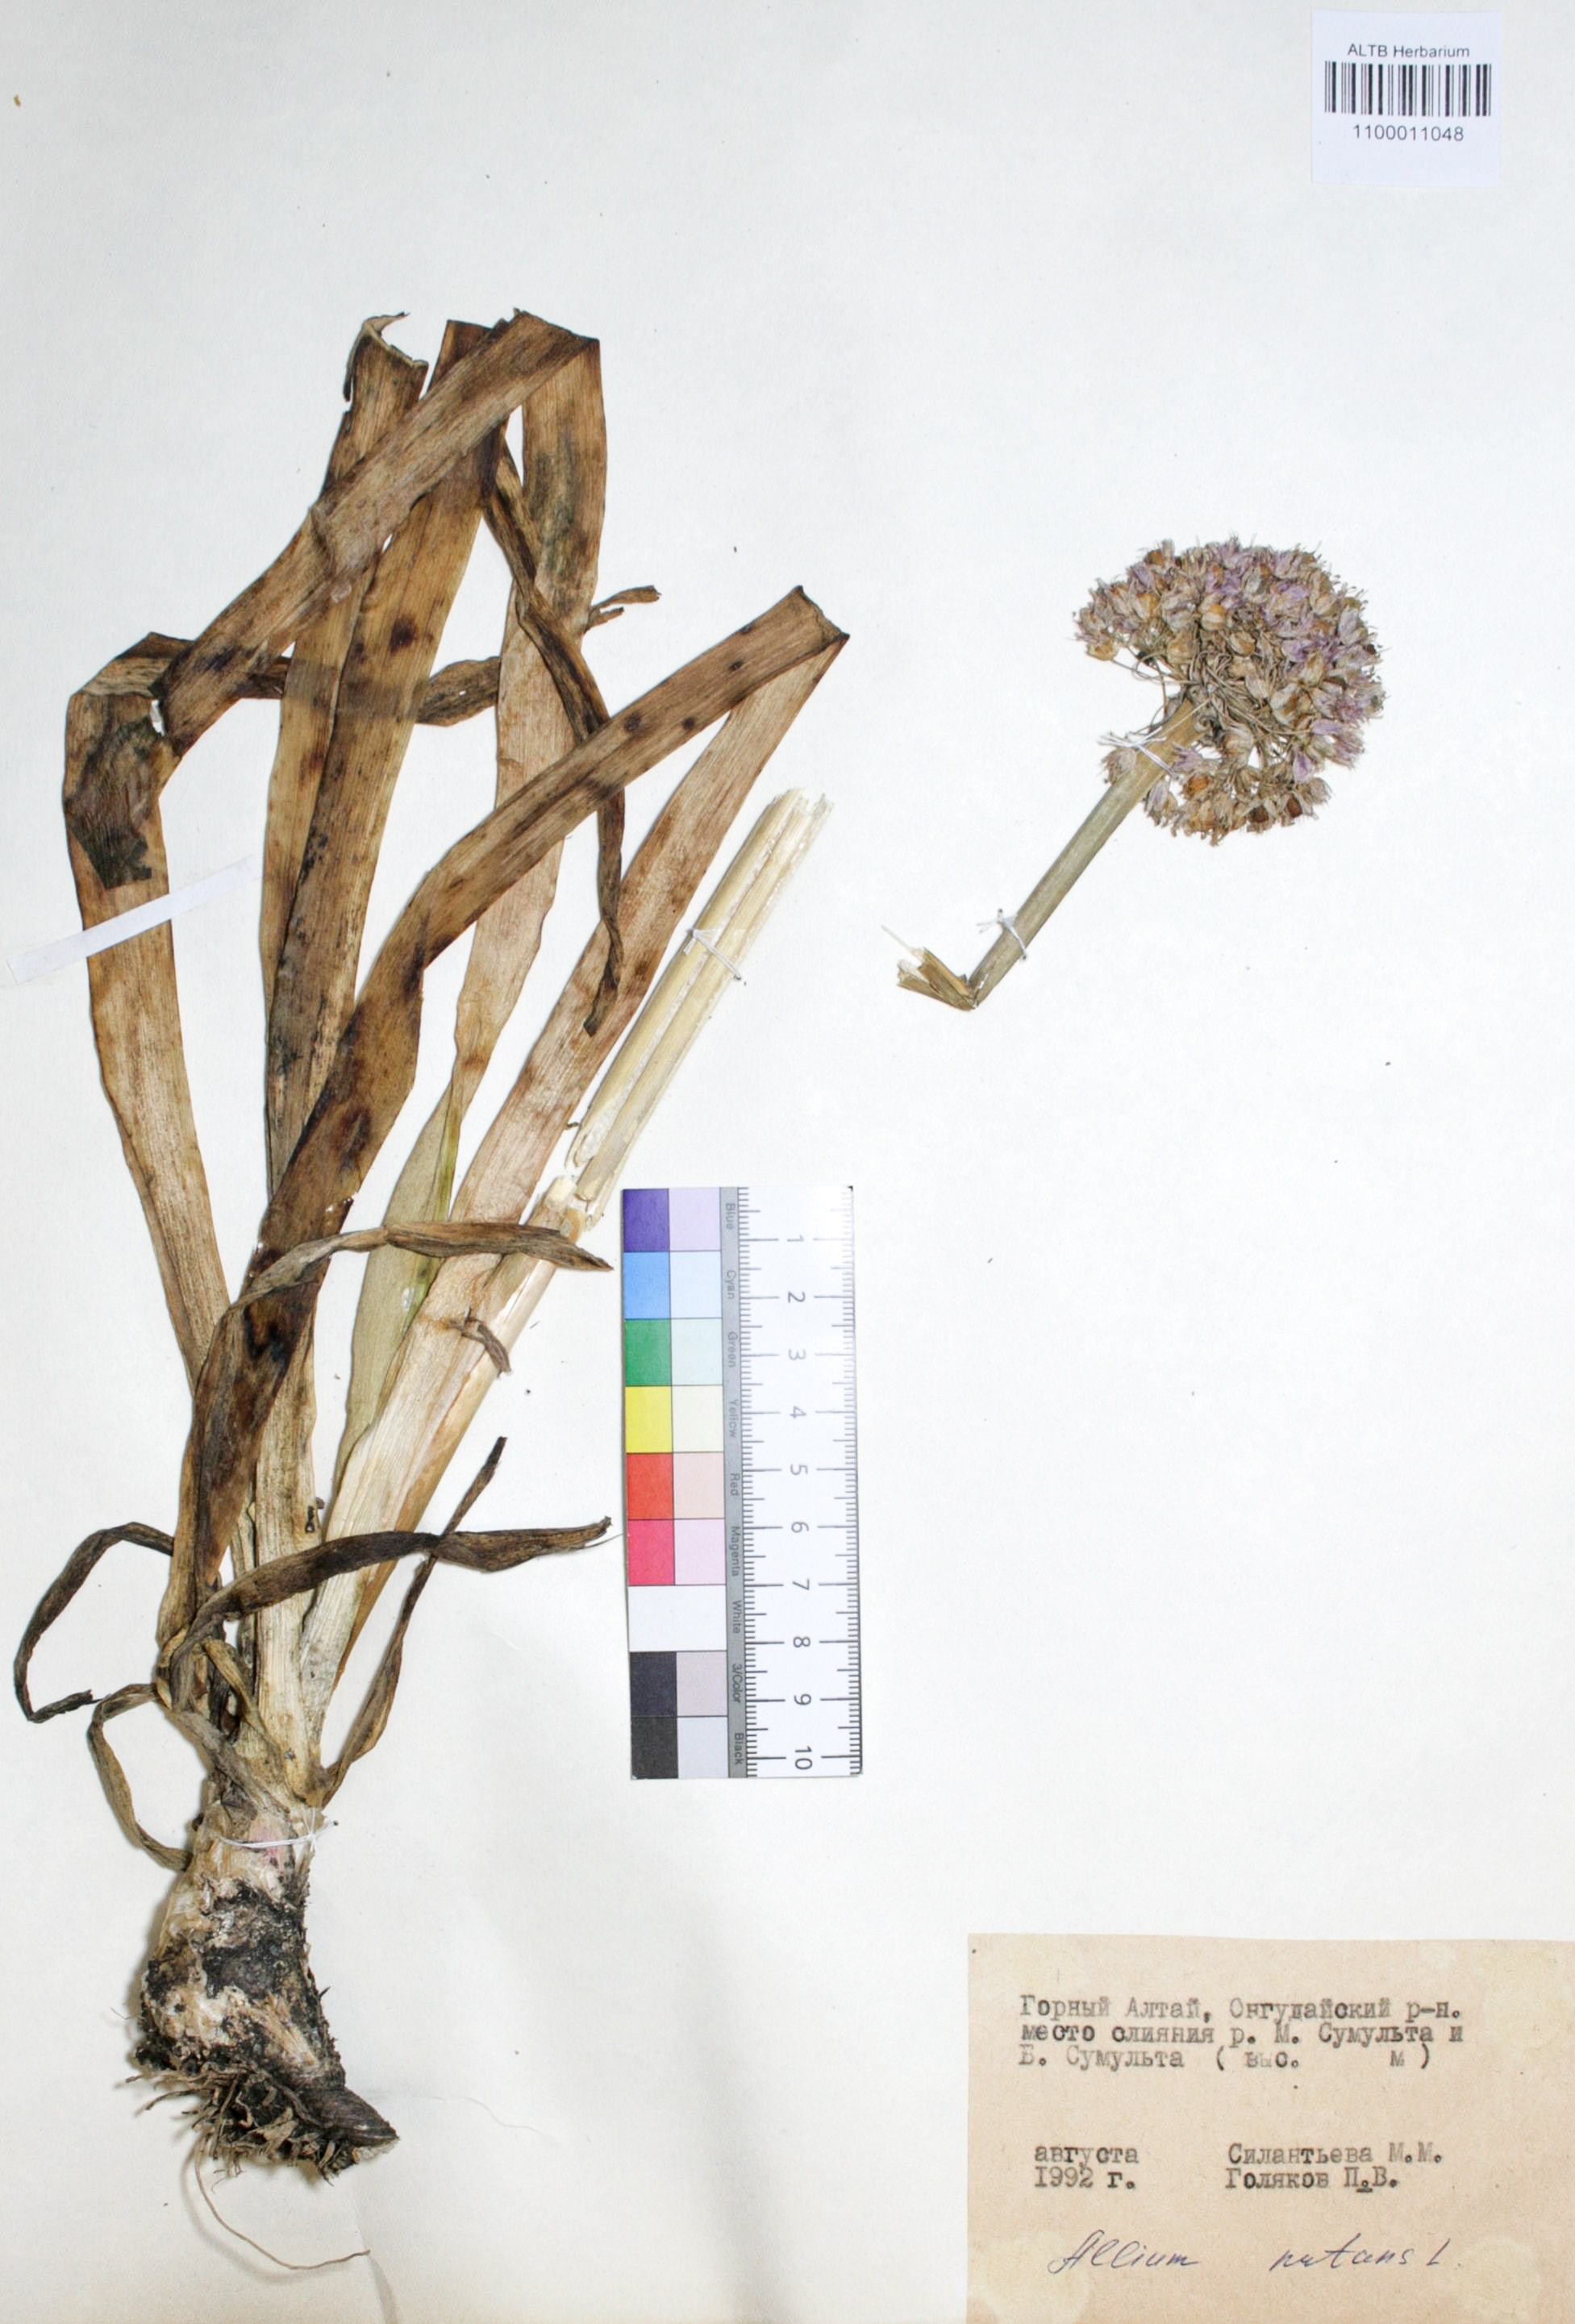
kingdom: Plantae
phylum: Tracheophyta
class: Liliopsida
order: Asparagales
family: Amaryllidaceae
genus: Allium
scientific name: Allium nutans
